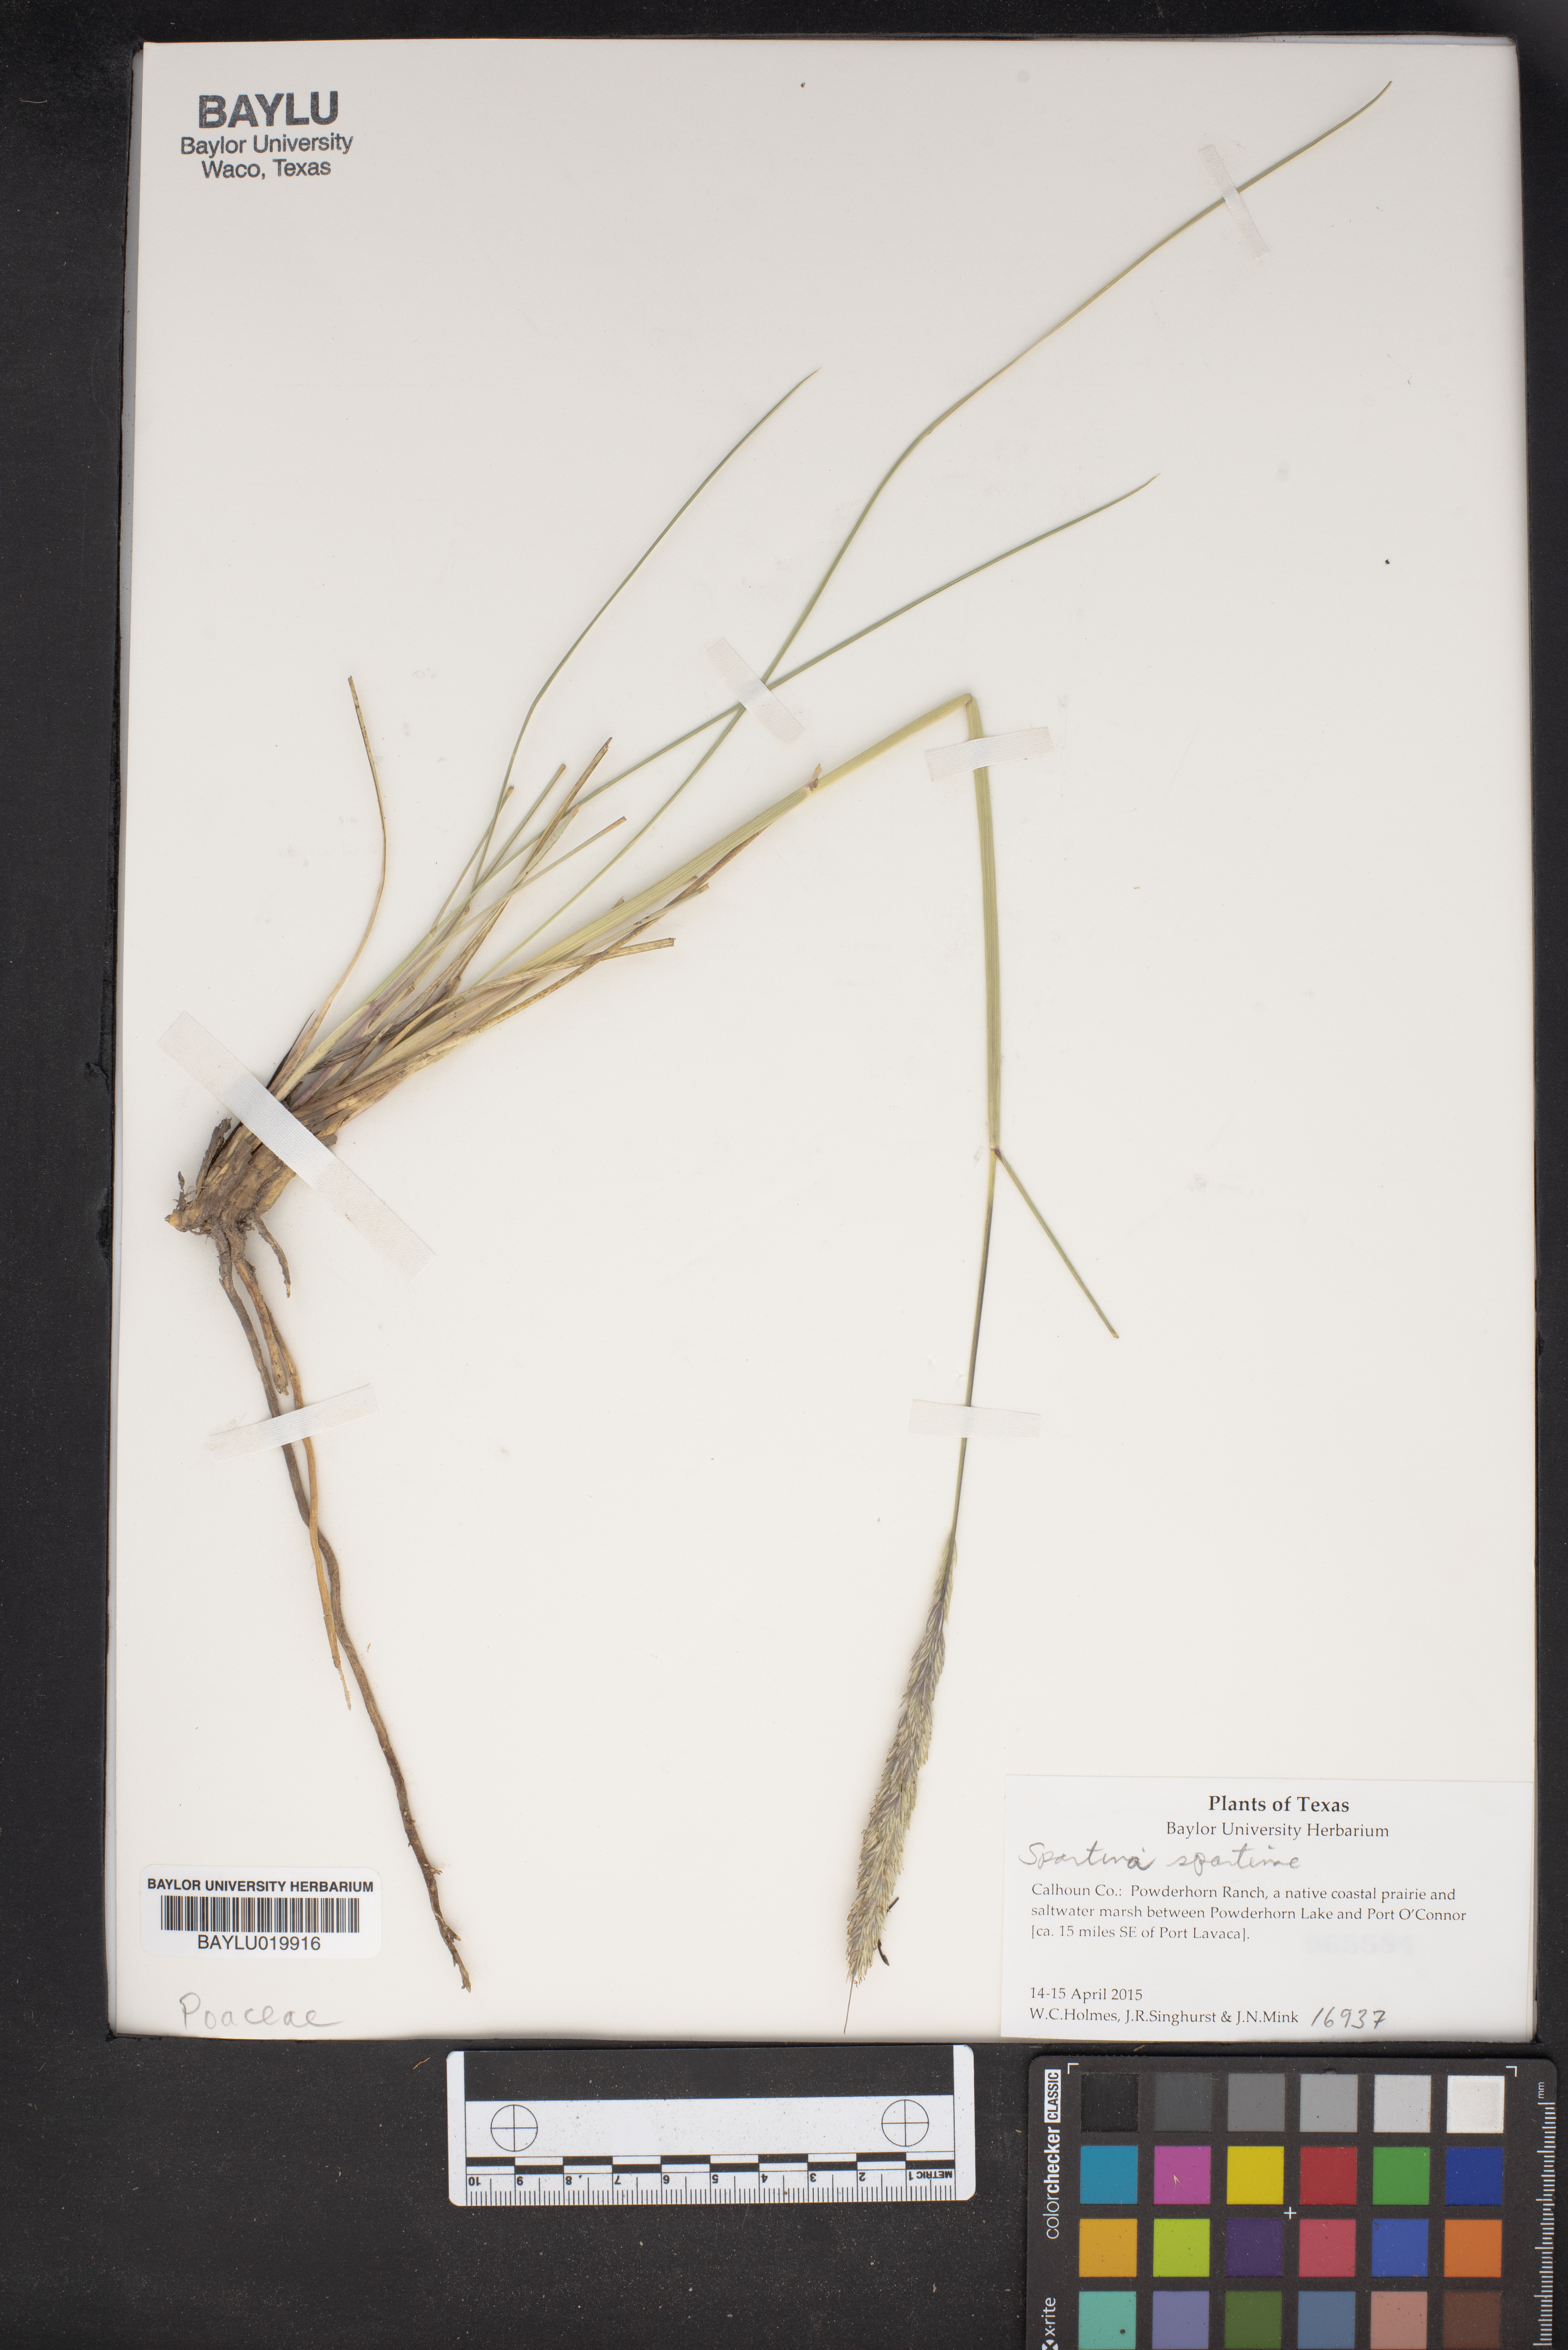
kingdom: Plantae
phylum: Tracheophyta
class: Liliopsida
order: Poales
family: Poaceae
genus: Sporobolus
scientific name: Sporobolus spartinae
